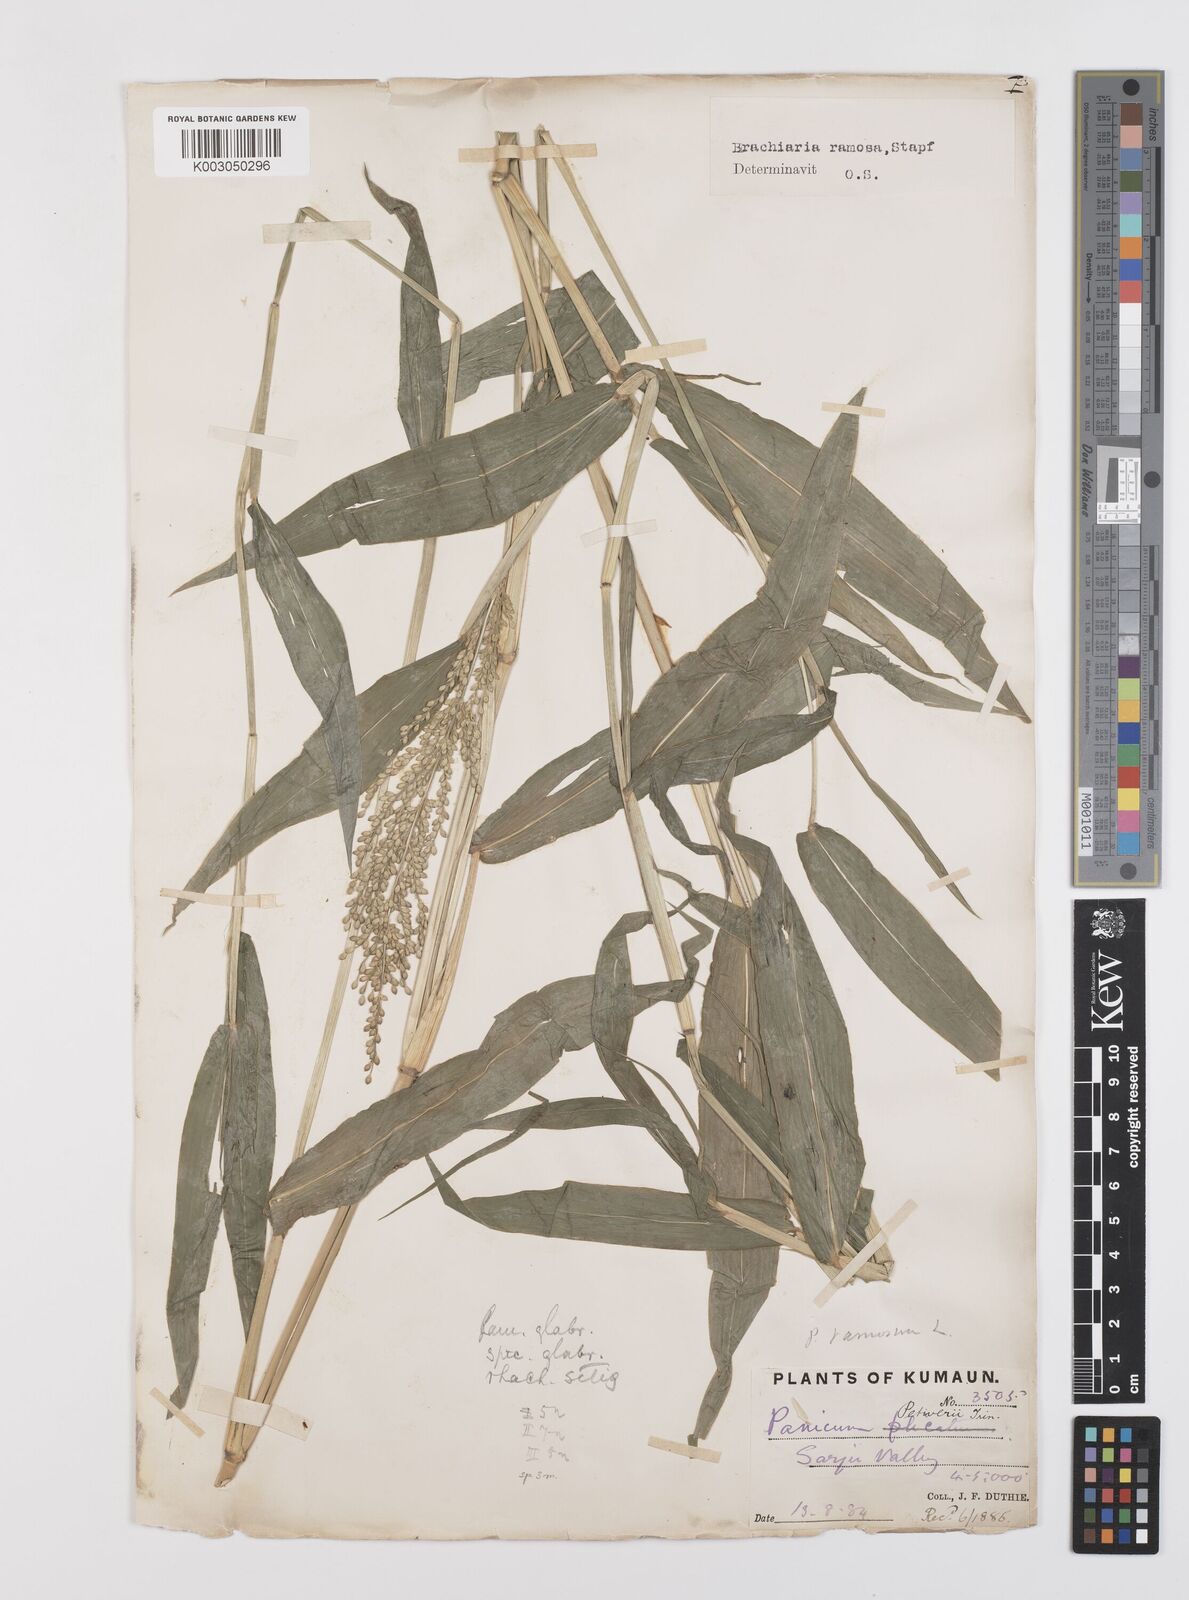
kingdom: Plantae
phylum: Tracheophyta
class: Liliopsida
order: Poales
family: Poaceae
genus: Urochloa
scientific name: Urochloa ramosa
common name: Browntop millet
